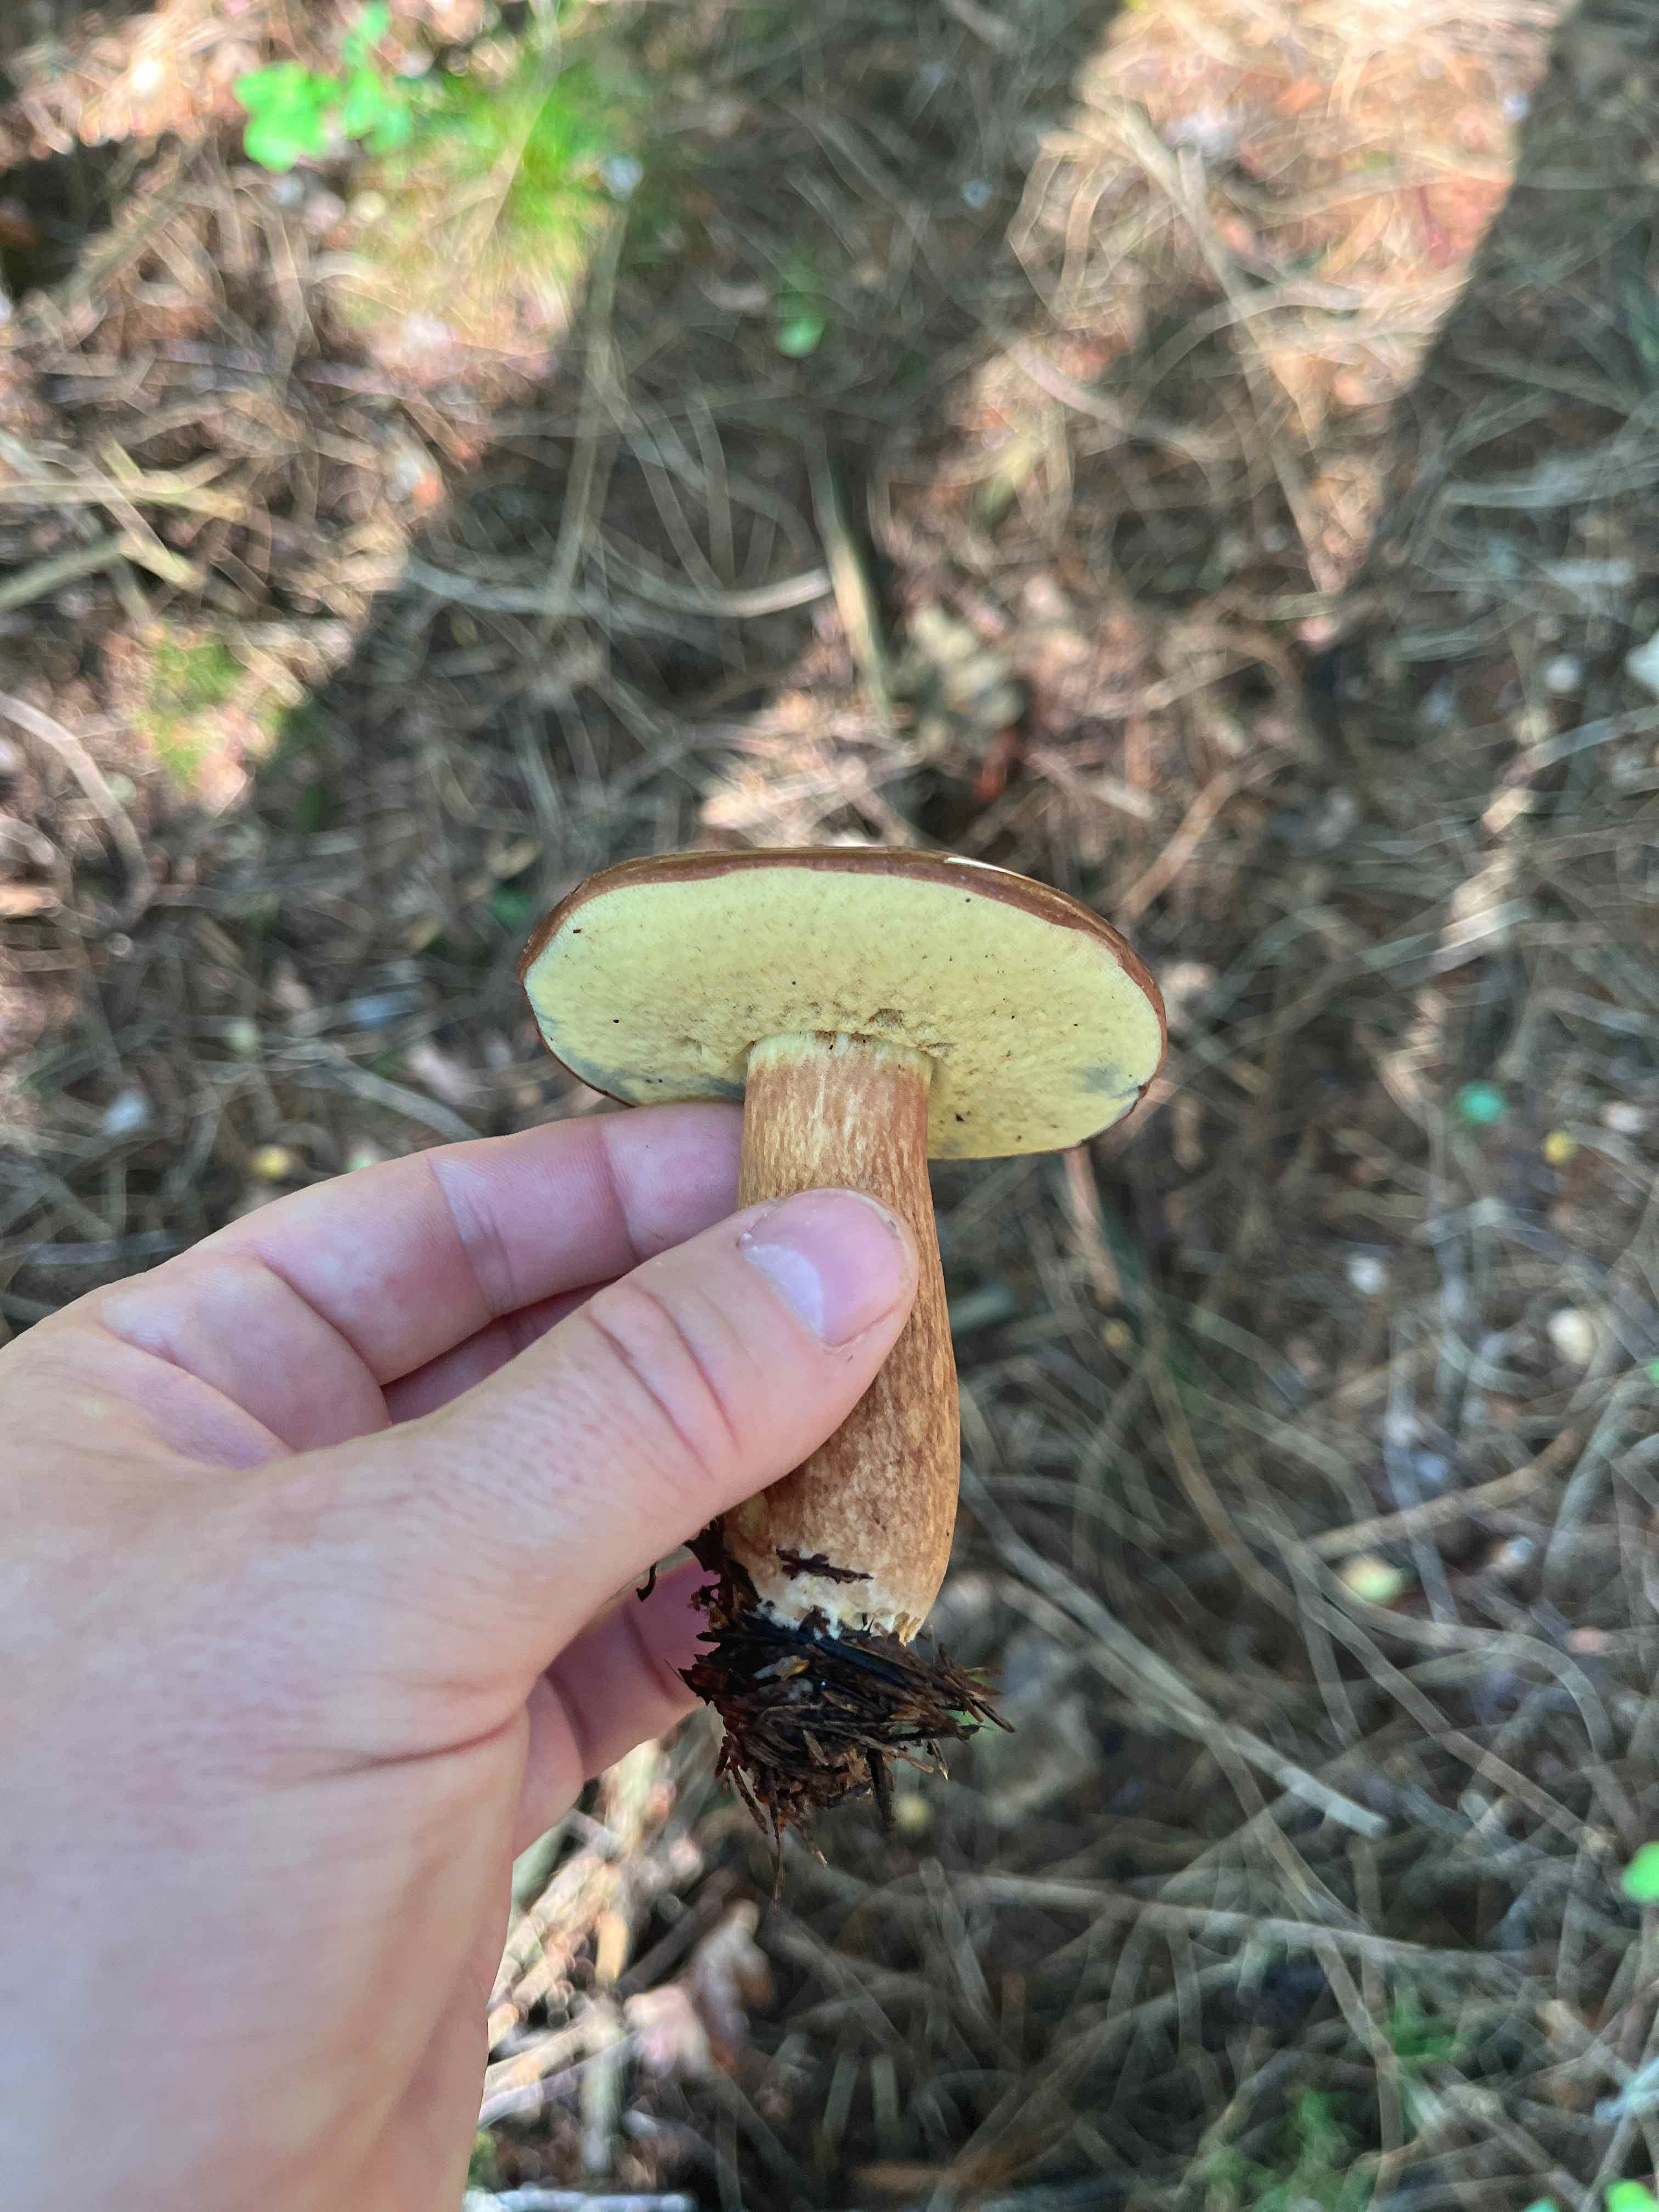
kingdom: Fungi
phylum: Basidiomycota
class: Agaricomycetes
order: Boletales
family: Boletaceae
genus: Imleria
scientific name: Imleria badia
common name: brunstokket rørhat
